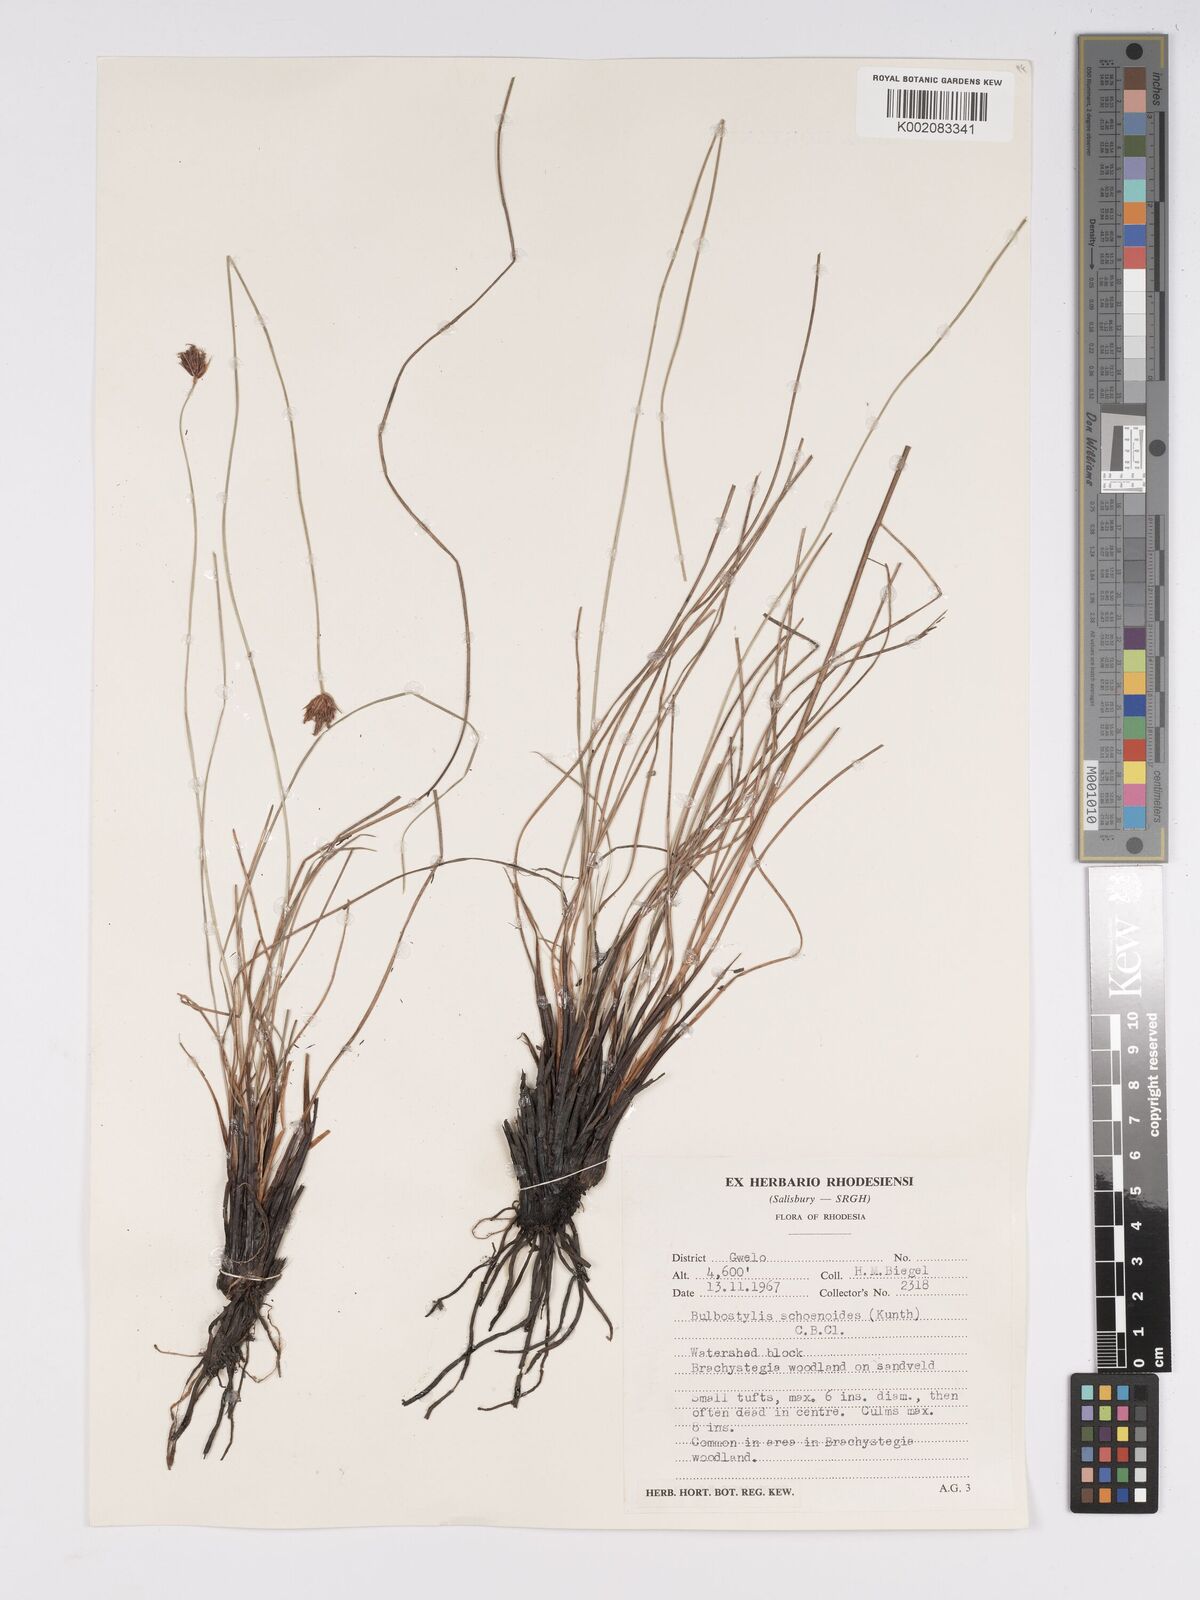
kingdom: Plantae
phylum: Tracheophyta
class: Liliopsida
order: Poales
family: Cyperaceae
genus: Bulbostylis
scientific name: Bulbostylis schoenoides
